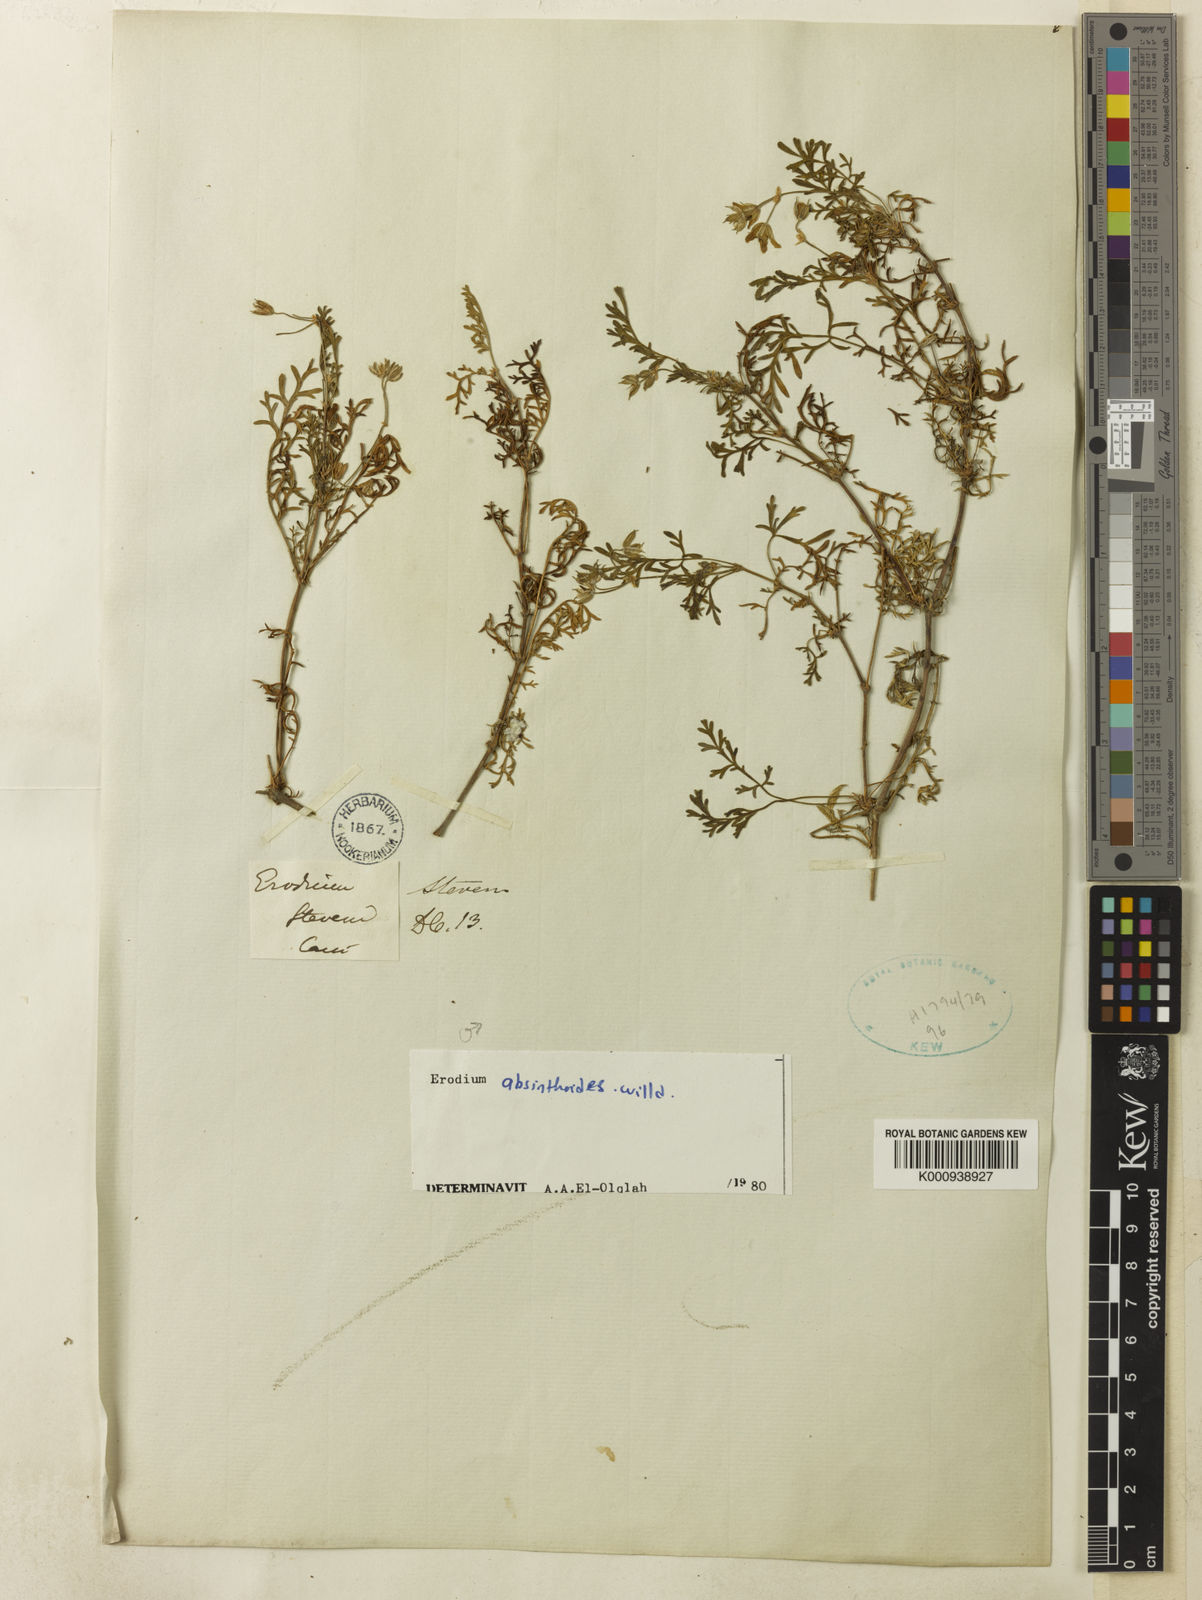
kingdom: Plantae
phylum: Tracheophyta
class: Magnoliopsida
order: Geraniales
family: Geraniaceae
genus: Erodium
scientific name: Erodium absinthoides
